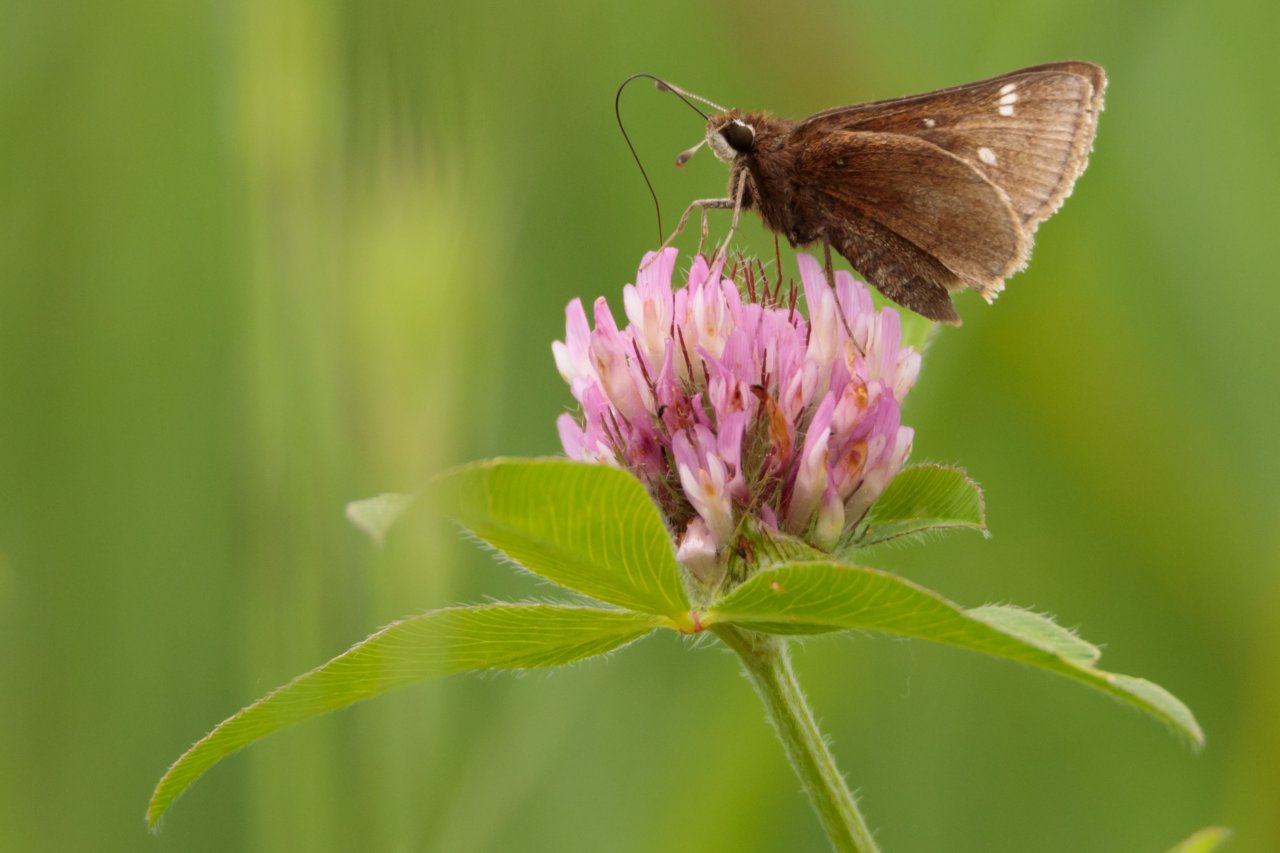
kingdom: Animalia
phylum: Arthropoda
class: Insecta
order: Lepidoptera
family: Hesperiidae
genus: Atrytonopsis
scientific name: Atrytonopsis hianna
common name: Dusted Skipper
